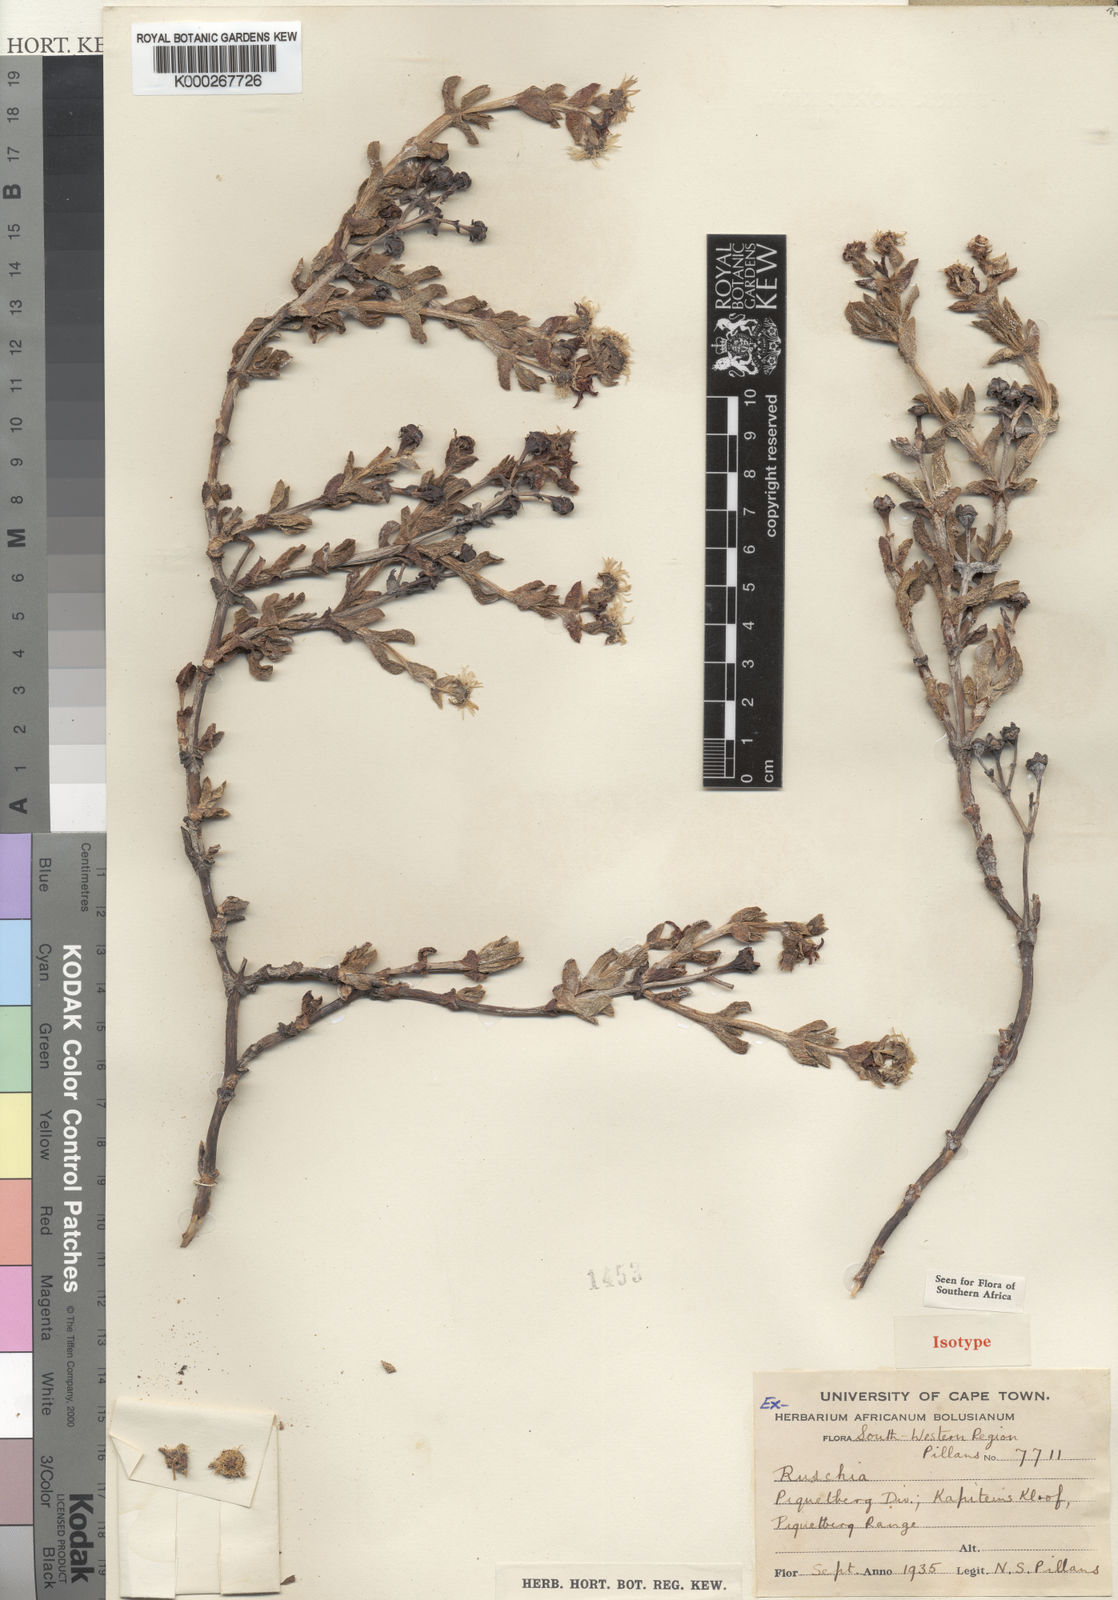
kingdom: Plantae
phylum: Tracheophyta
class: Magnoliopsida
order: Caryophyllales
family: Aizoaceae
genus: Lampranthus
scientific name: Lampranthus profundus
